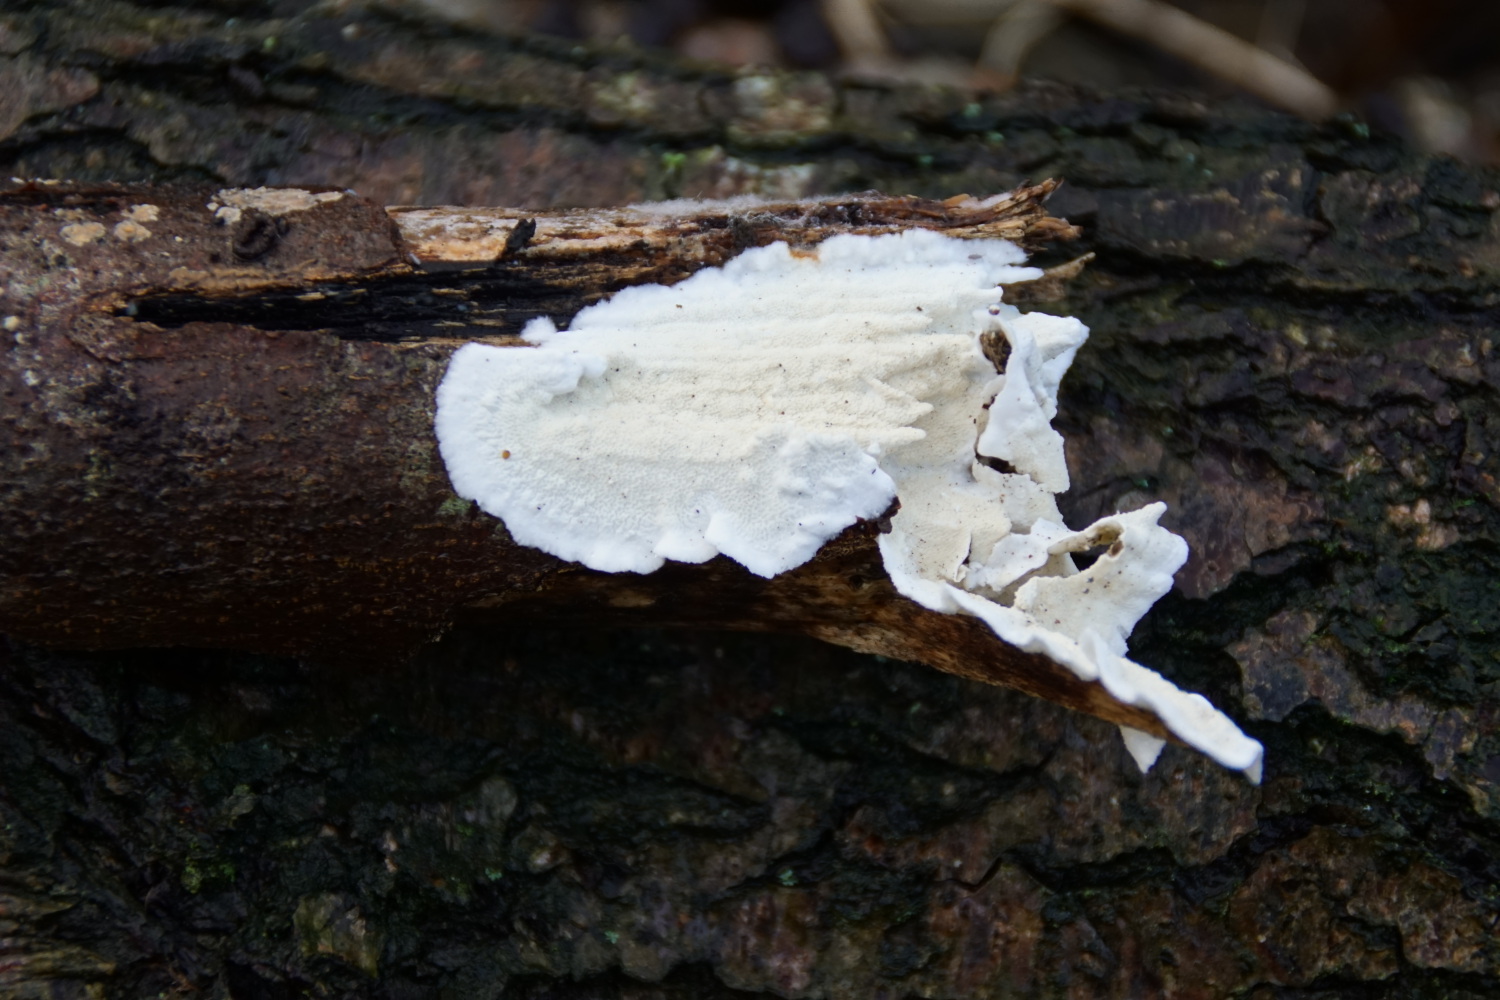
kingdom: Fungi
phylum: Basidiomycota
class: Agaricomycetes
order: Polyporales
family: Irpicaceae
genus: Byssomerulius
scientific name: Byssomerulius corium
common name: læder-åresvamp
